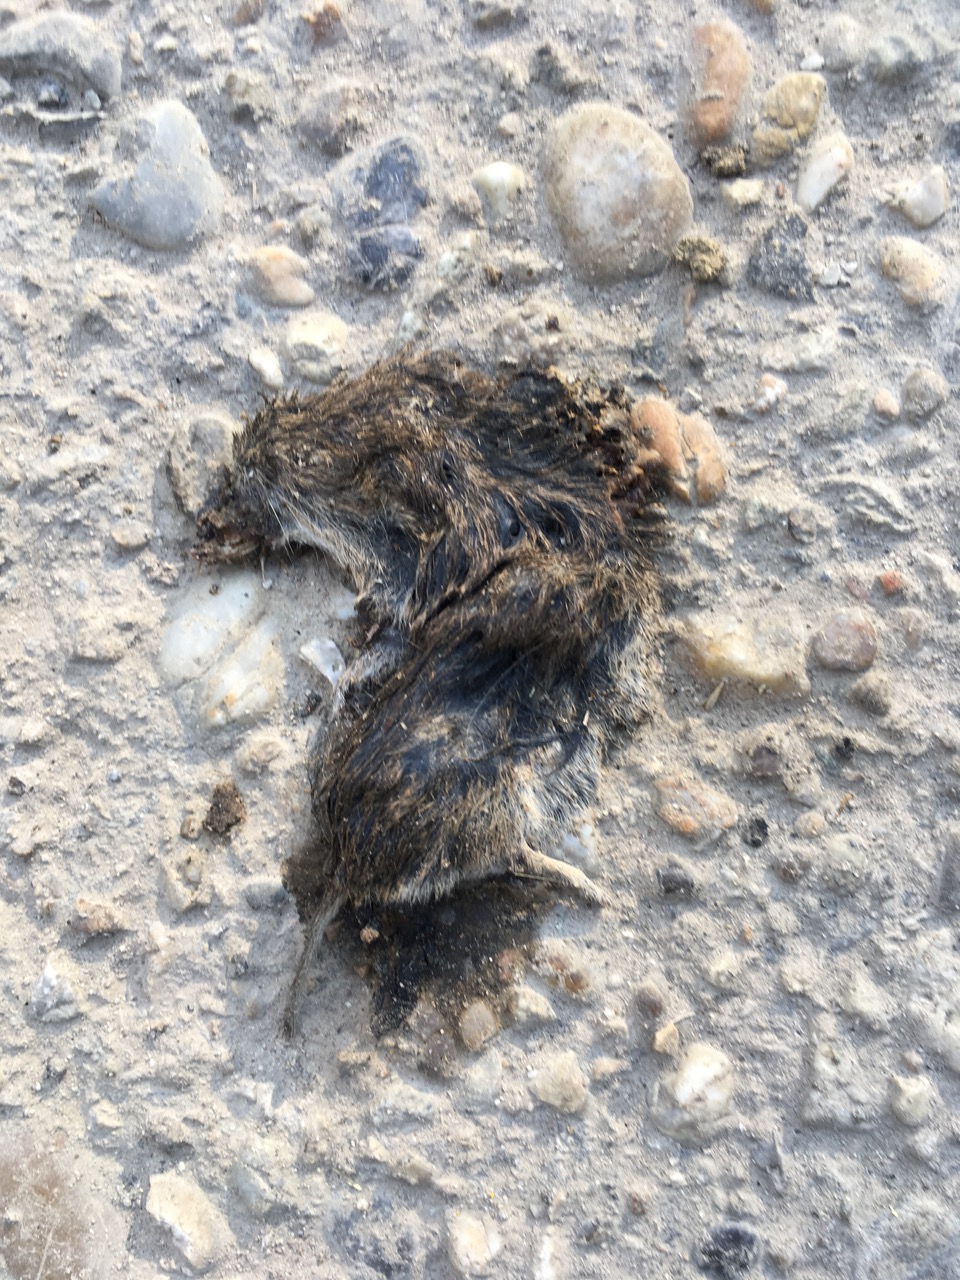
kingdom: Animalia
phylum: Chordata
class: Mammalia
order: Rodentia
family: Cricetidae
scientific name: Cricetidae
